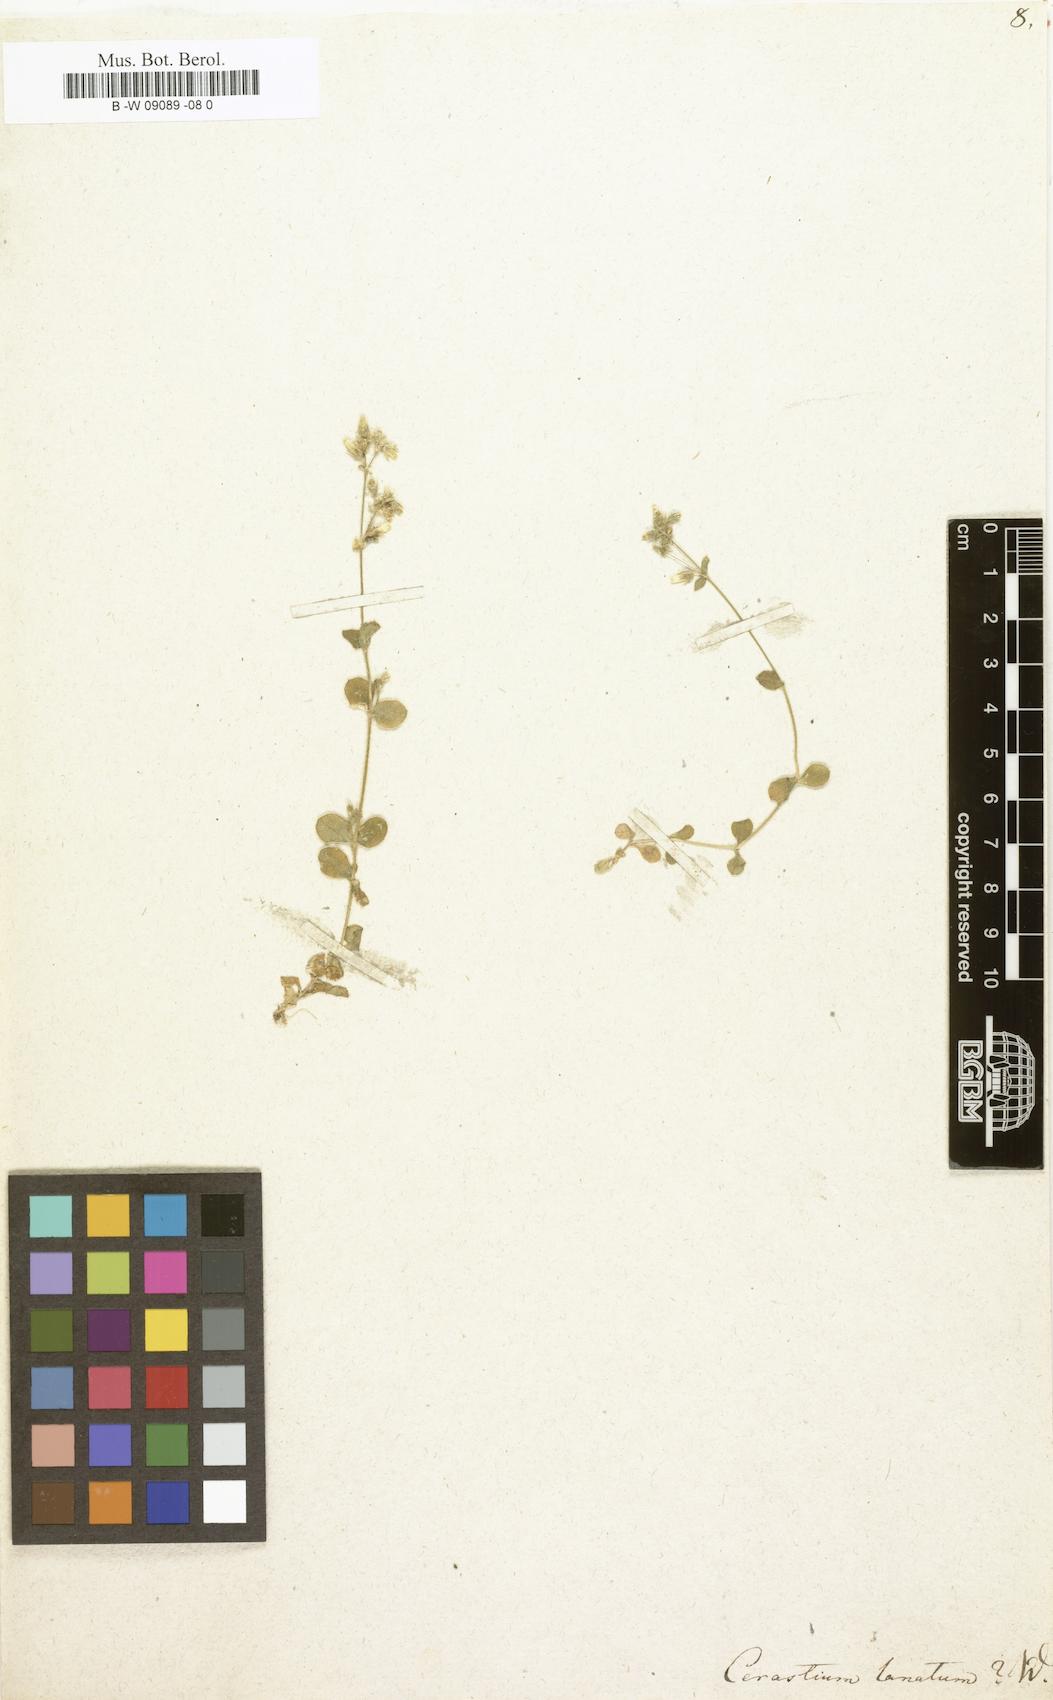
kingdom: Plantae
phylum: Tracheophyta
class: Magnoliopsida
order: Caryophyllales
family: Caryophyllaceae
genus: Cerastium
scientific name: Cerastium alpinum
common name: Alpine mouse-ear
